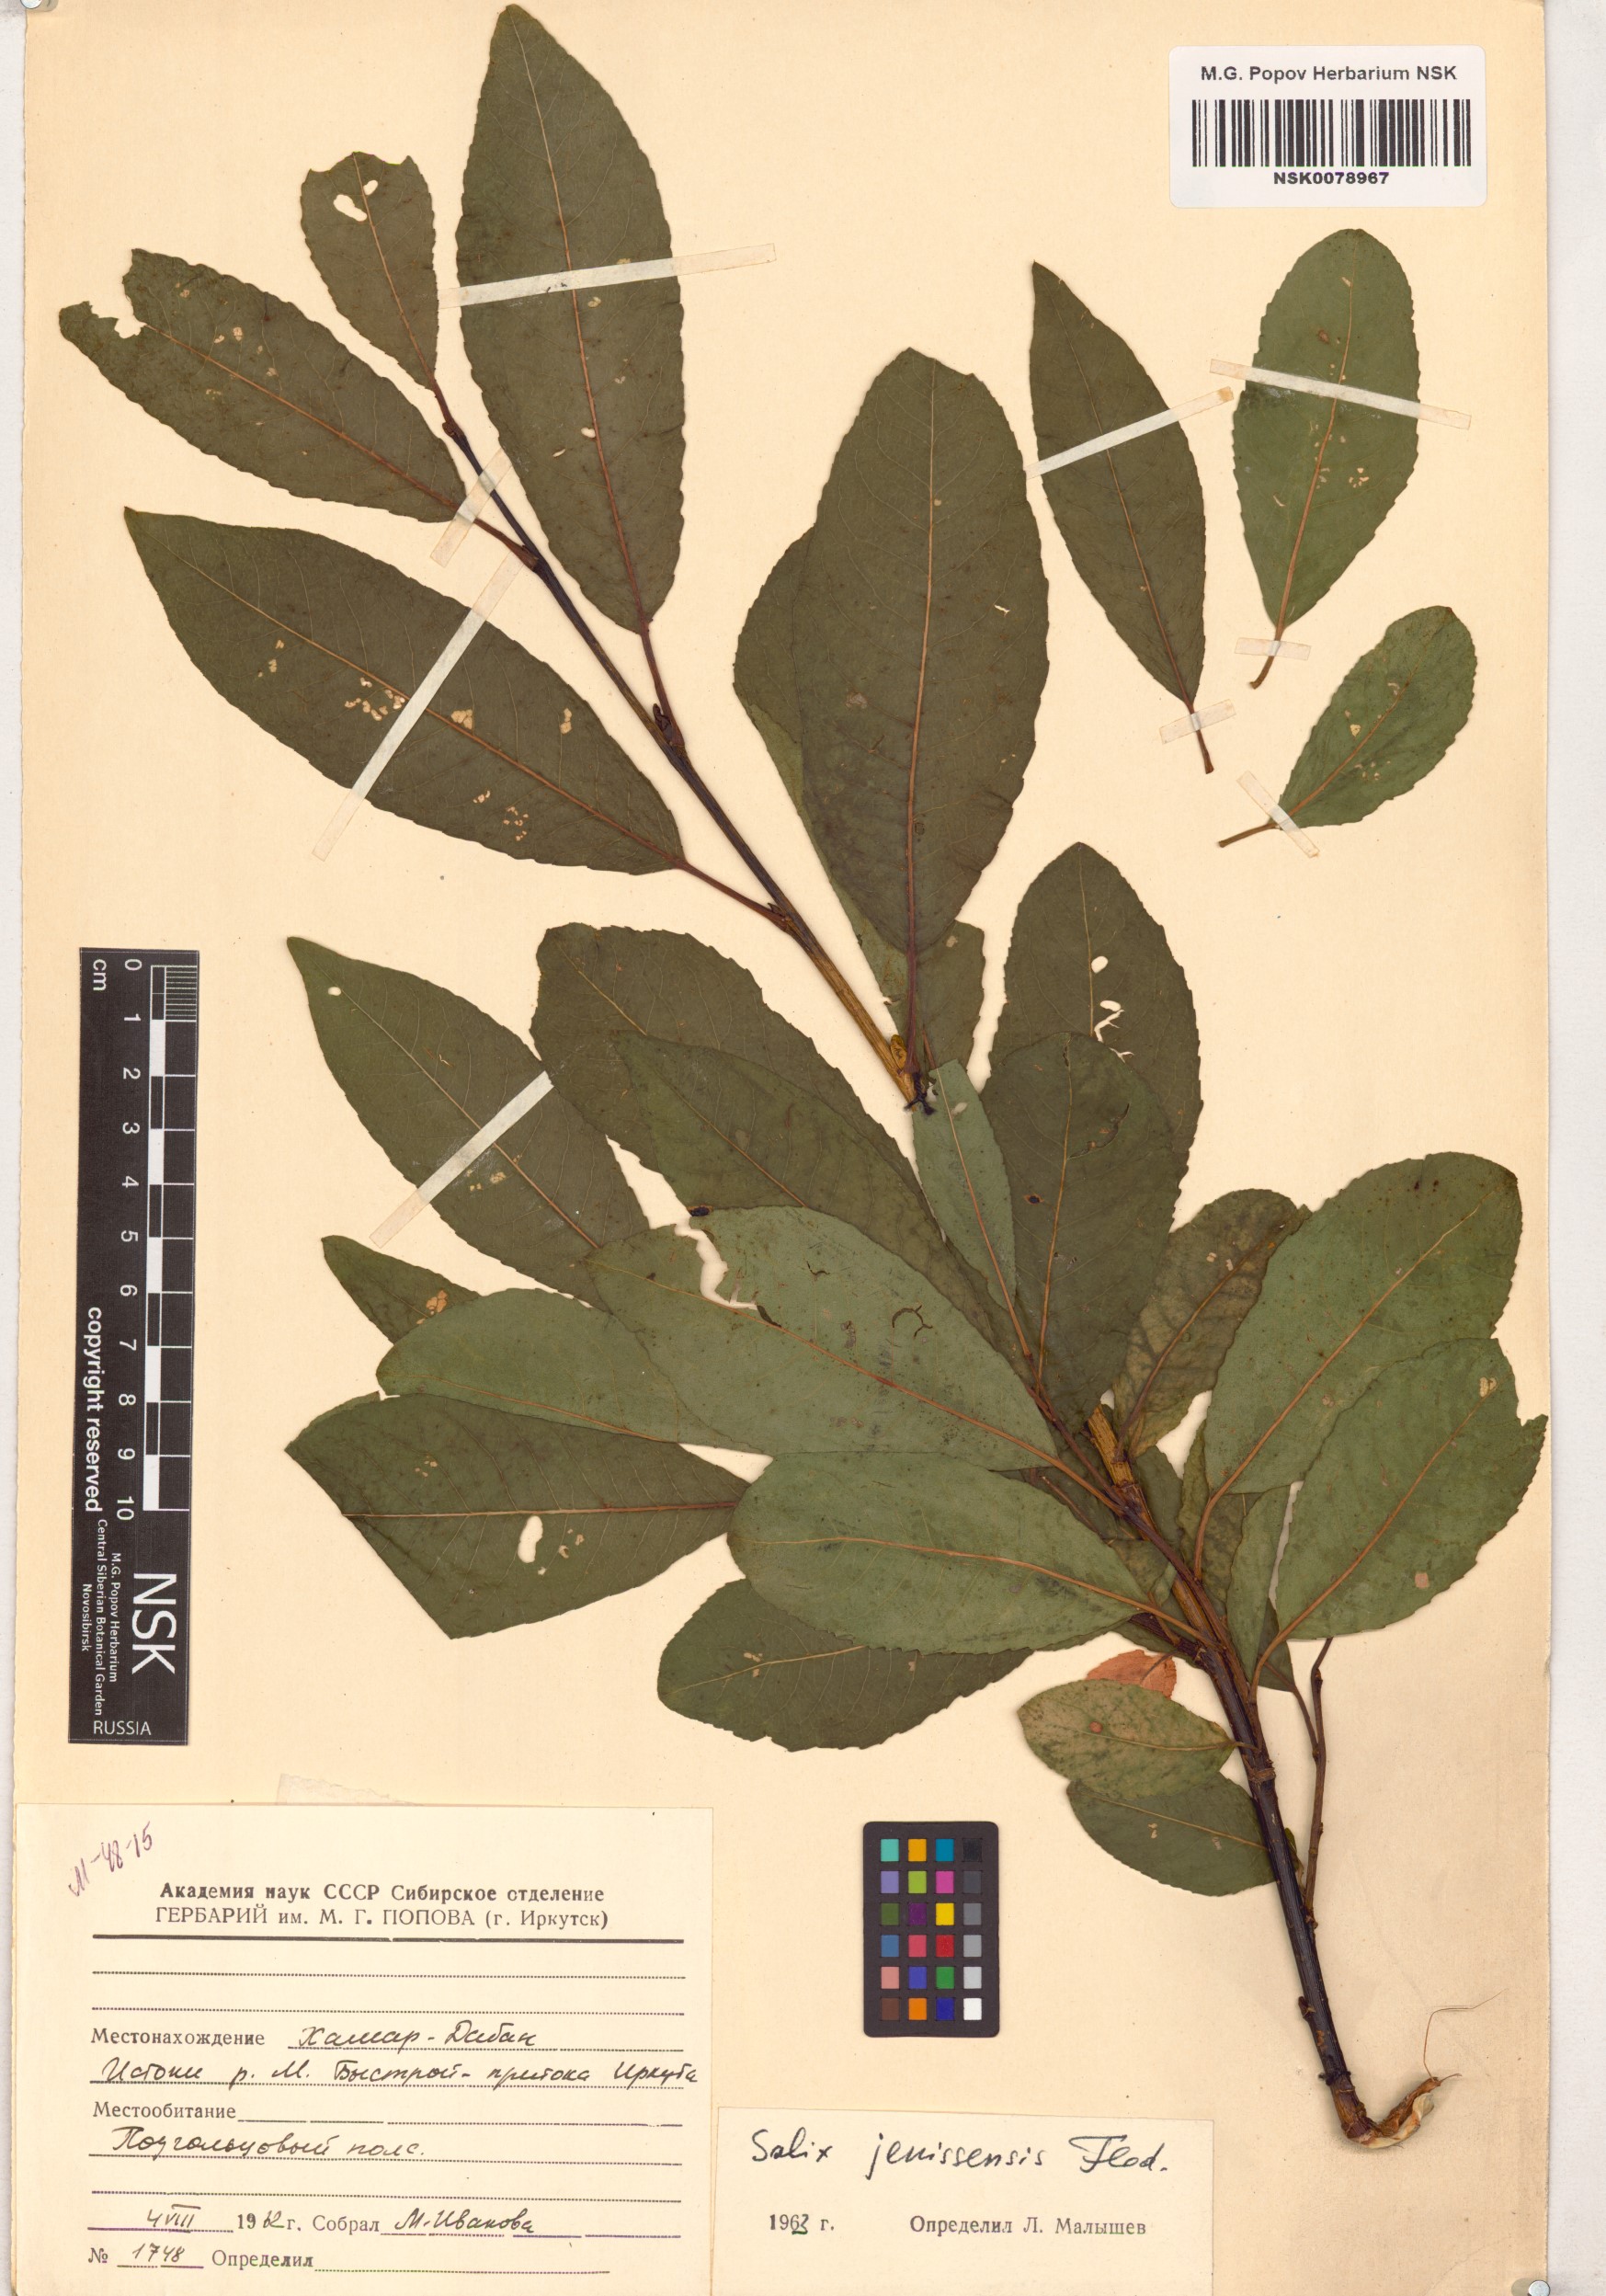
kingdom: Plantae
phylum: Tracheophyta
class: Magnoliopsida
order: Malpighiales
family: Salicaceae
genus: Salix
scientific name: Salix jenisseensis
